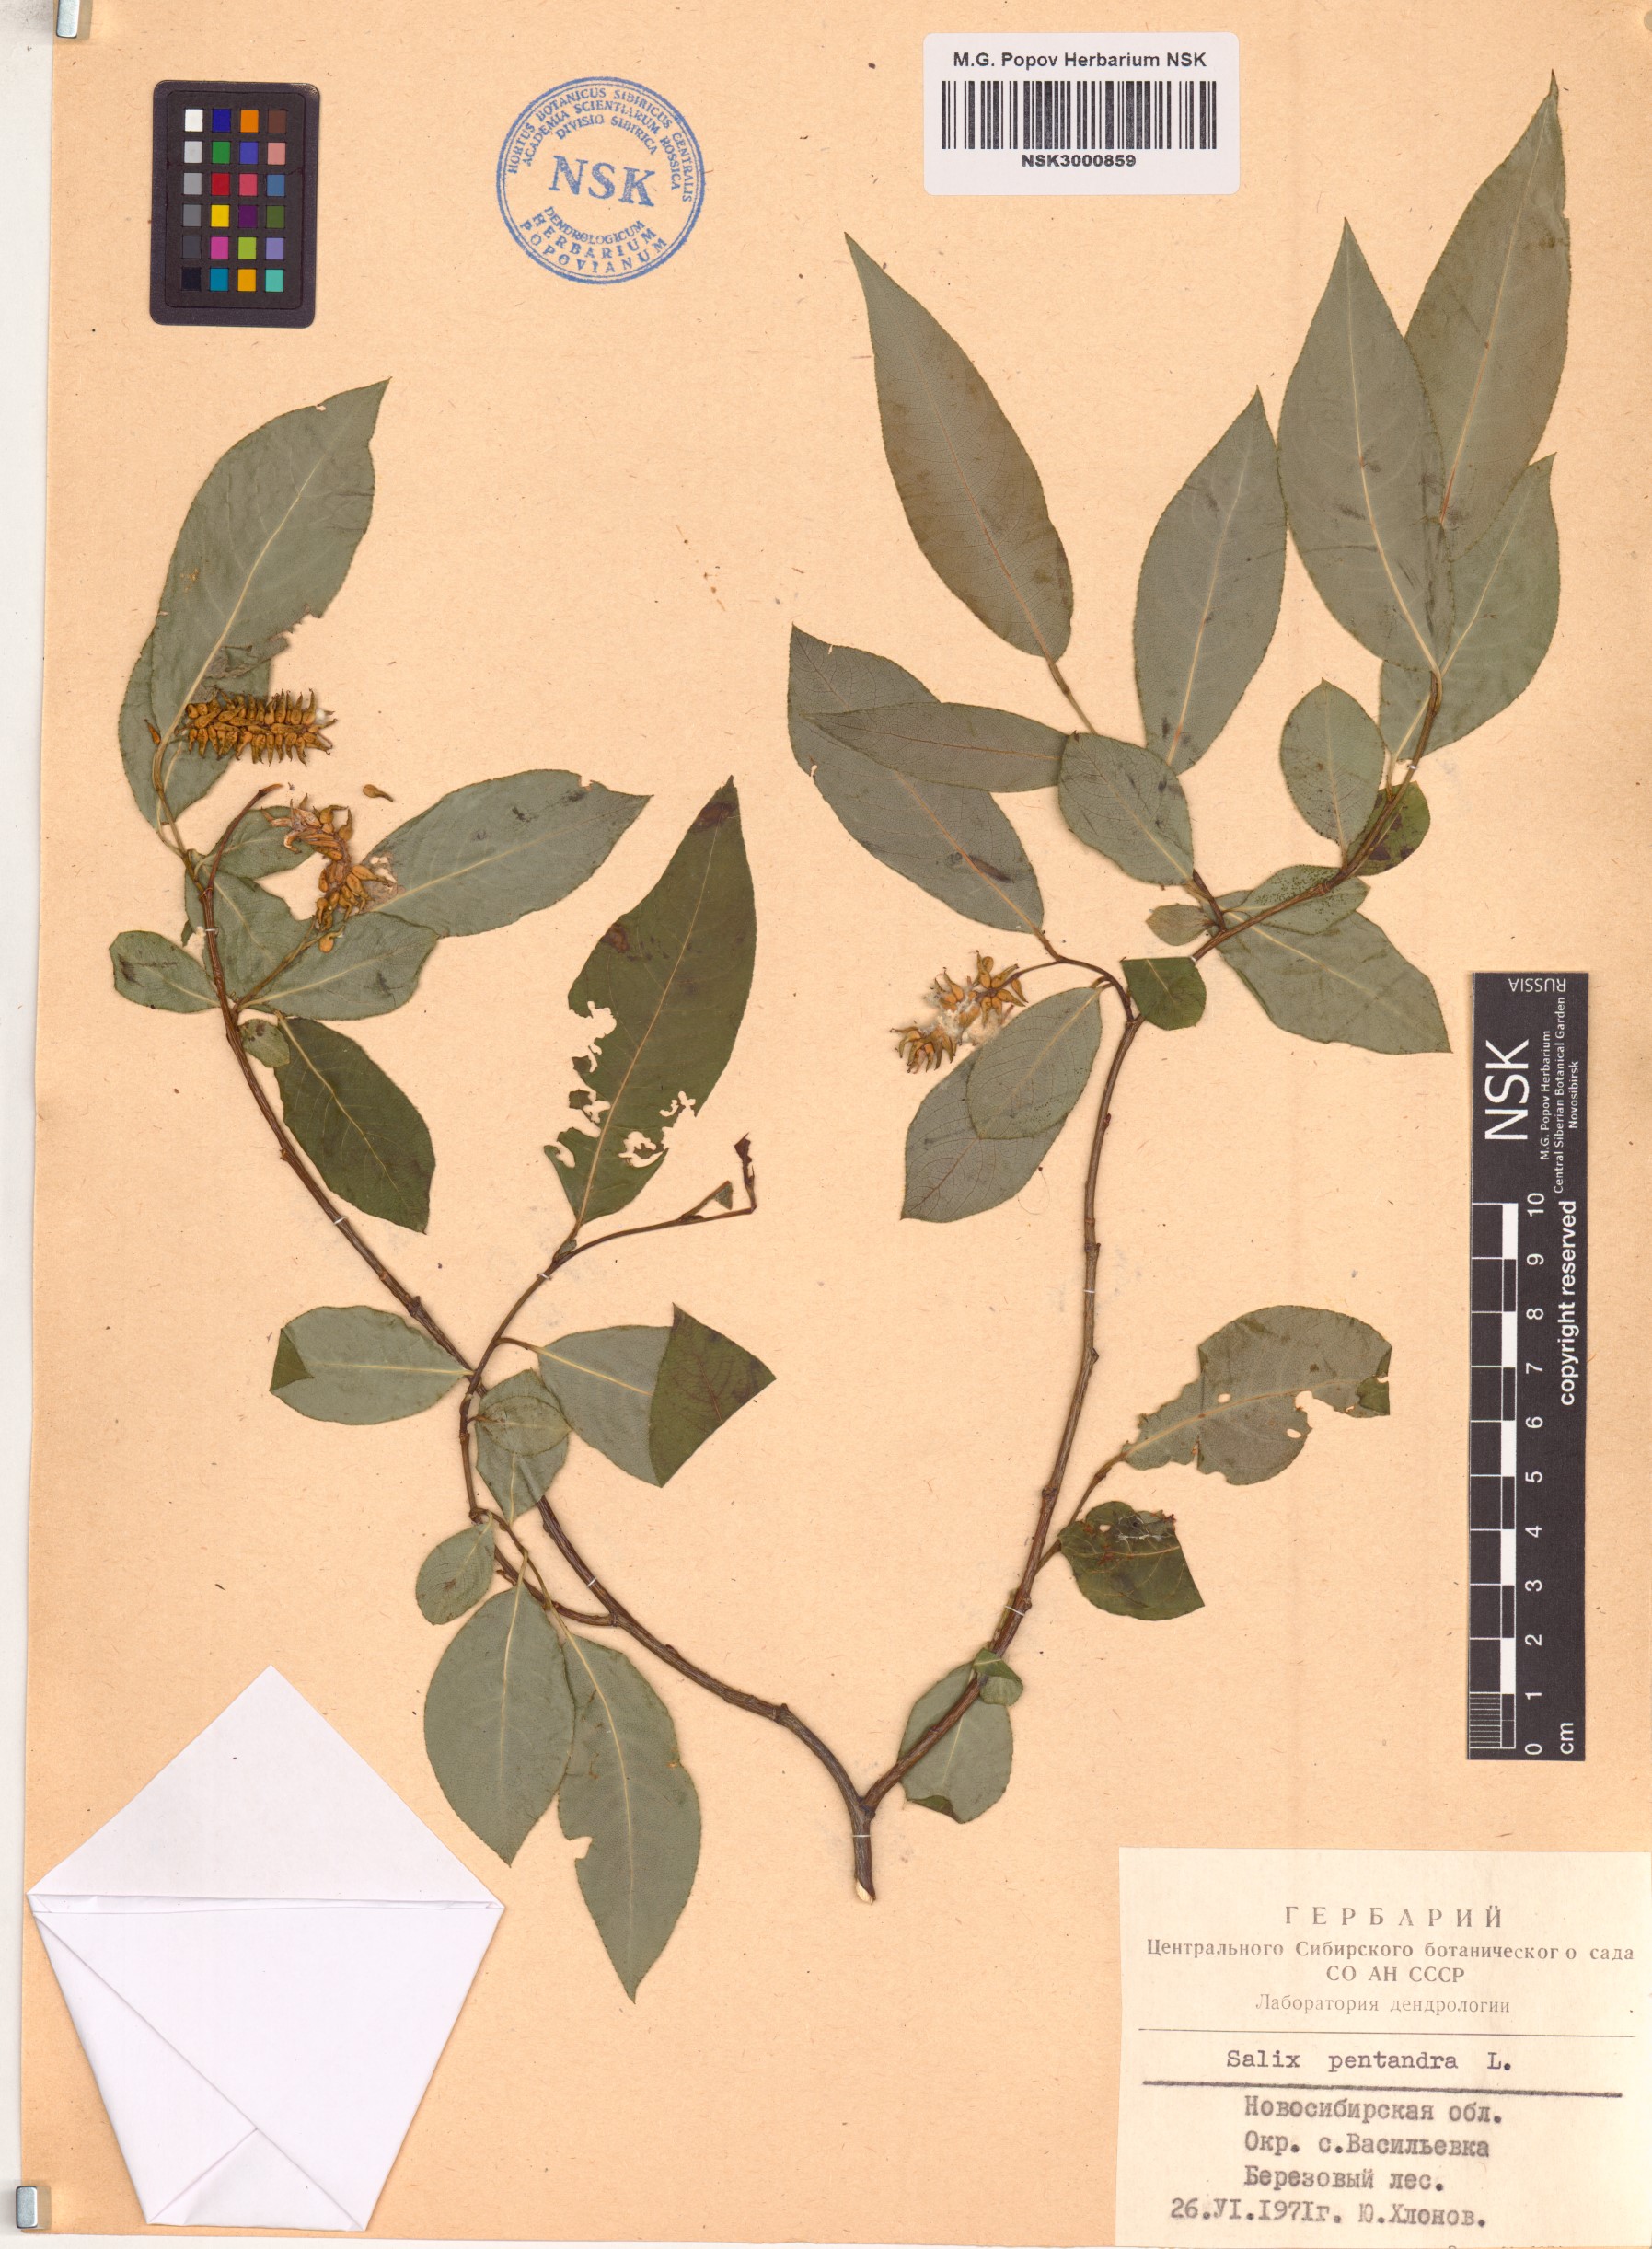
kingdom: Plantae
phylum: Tracheophyta
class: Magnoliopsida
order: Malpighiales
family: Salicaceae
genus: Salix
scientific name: Salix pentandra
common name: Bay willow
